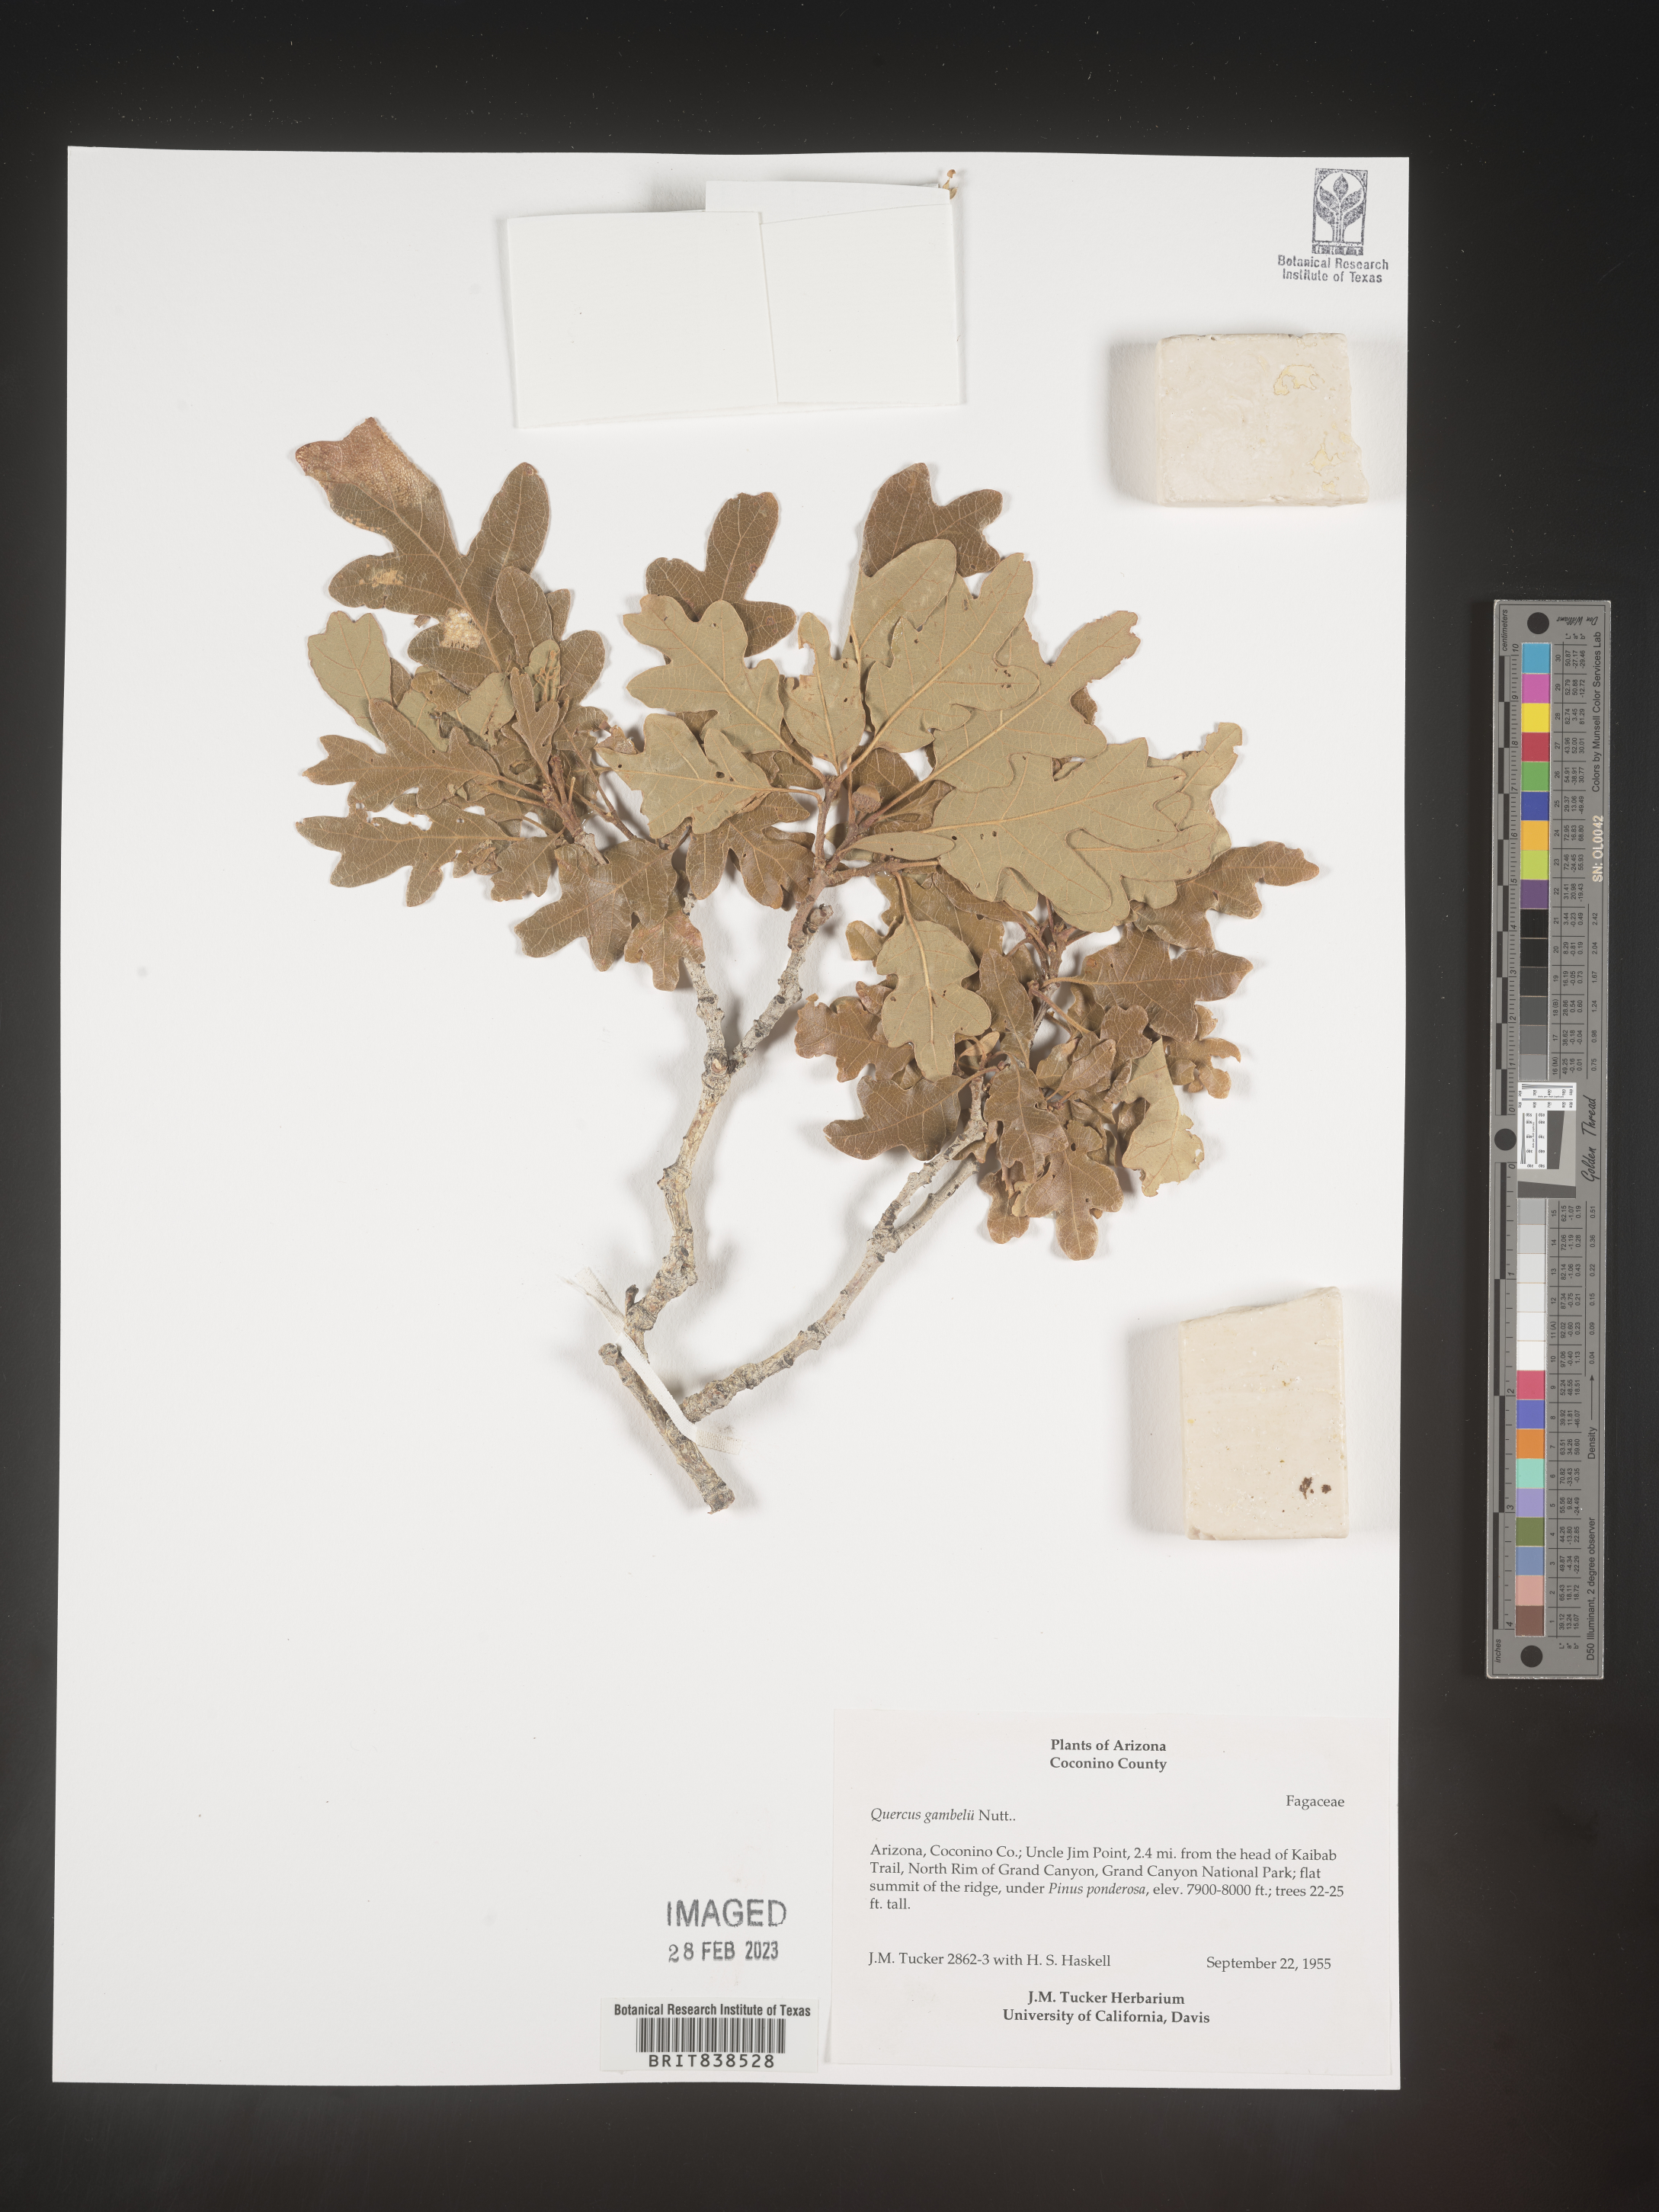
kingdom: Plantae
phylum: Tracheophyta
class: Magnoliopsida
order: Fagales
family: Fagaceae
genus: Quercus
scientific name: Quercus gambelii
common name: Gambel oak
